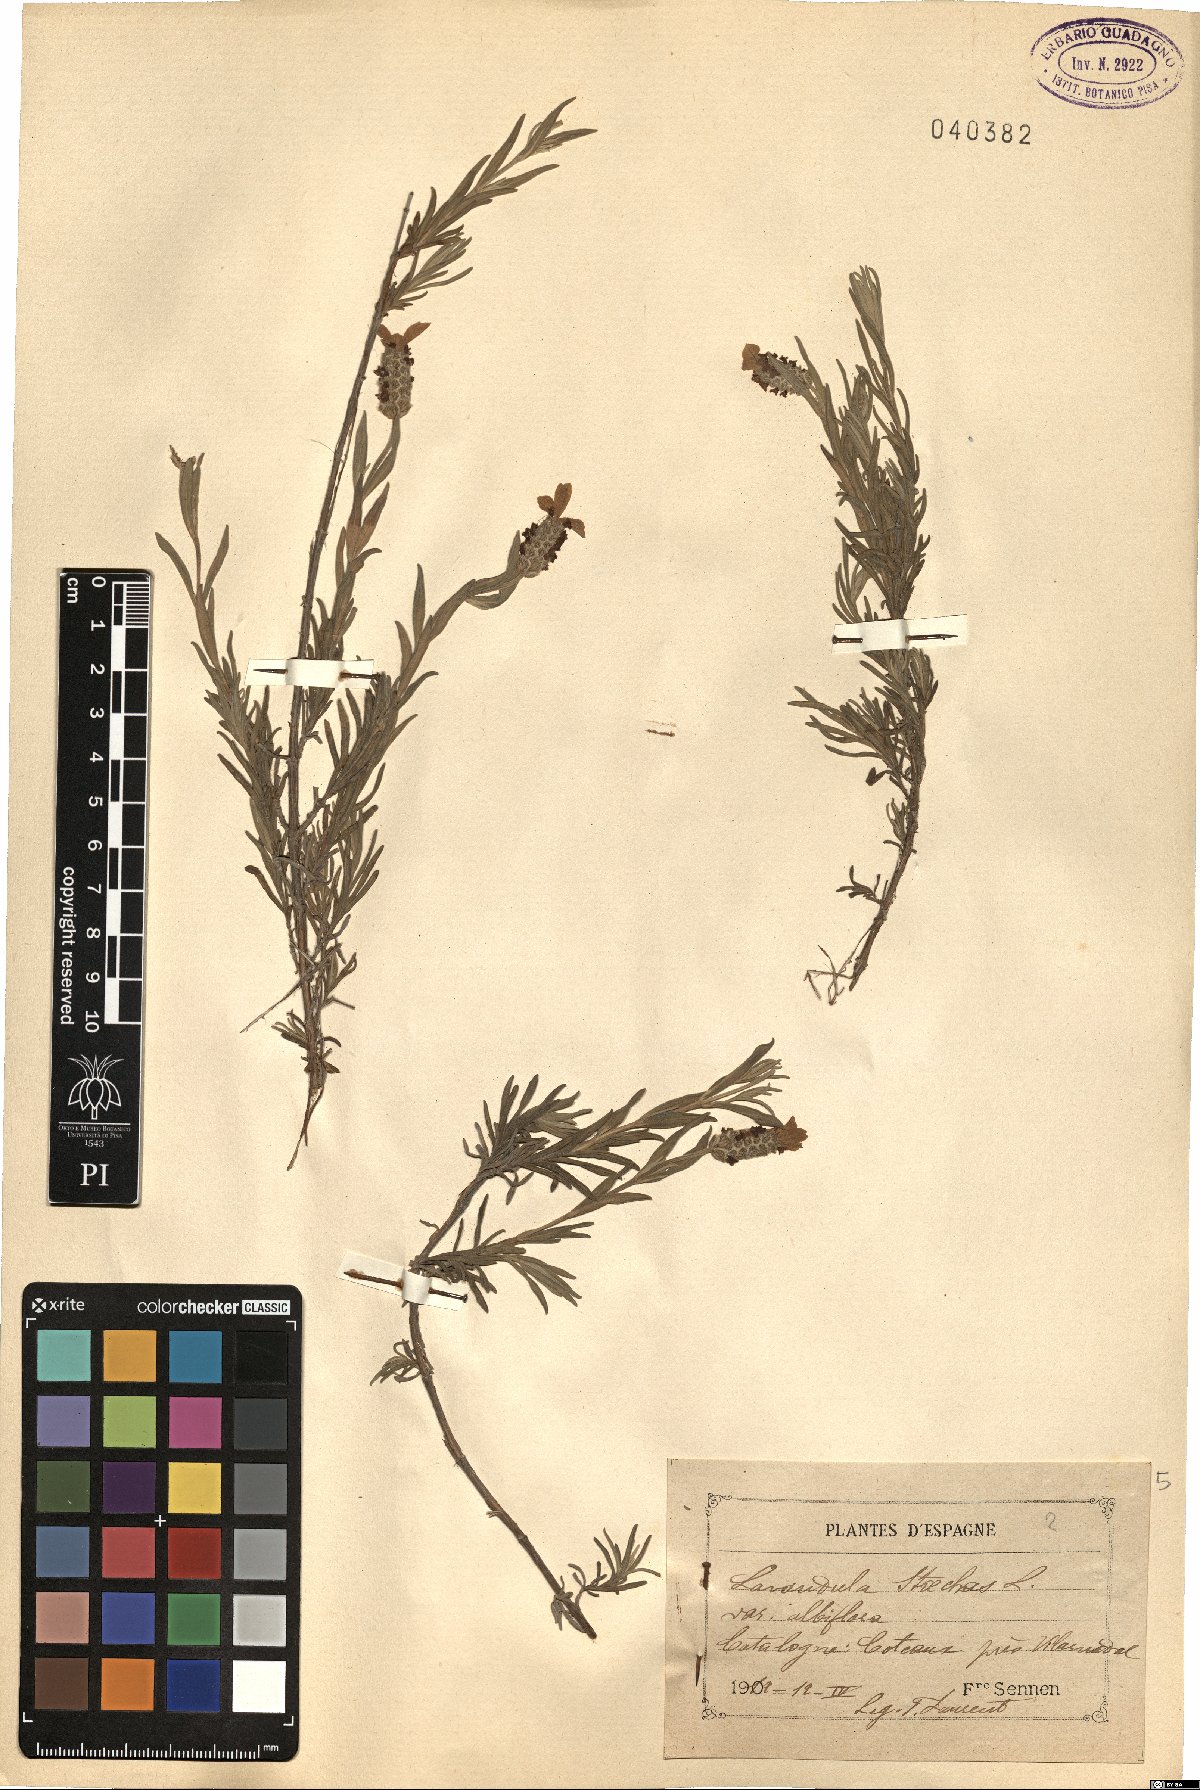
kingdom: Plantae
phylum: Tracheophyta
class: Magnoliopsida
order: Lamiales
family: Lamiaceae
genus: Lavandula
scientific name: Lavandula viridis
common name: Green spanish lavender
